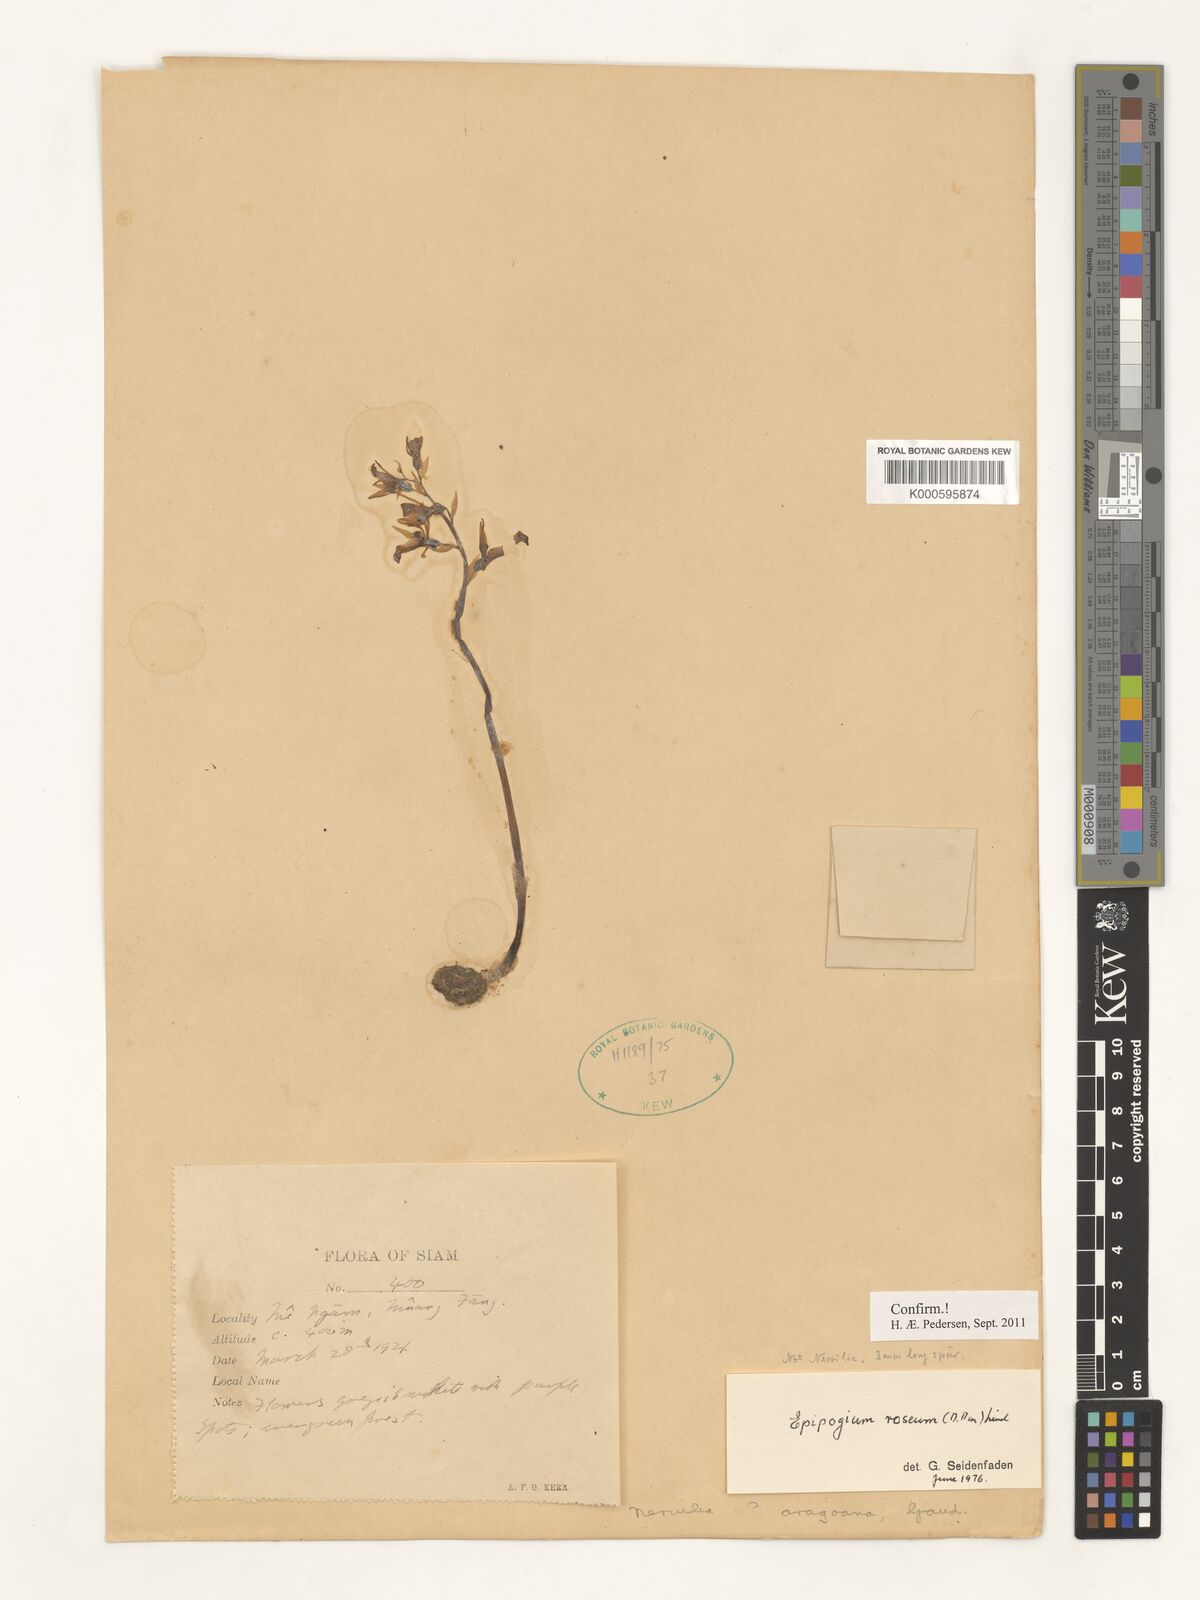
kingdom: Plantae
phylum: Tracheophyta
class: Liliopsida
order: Asparagales
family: Orchidaceae
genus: Epipogium
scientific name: Epipogium roseum
